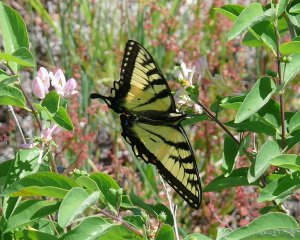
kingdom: Animalia
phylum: Arthropoda
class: Insecta
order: Lepidoptera
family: Papilionidae
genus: Pterourus
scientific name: Pterourus canadensis
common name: Canadian Tiger Swallowtail
